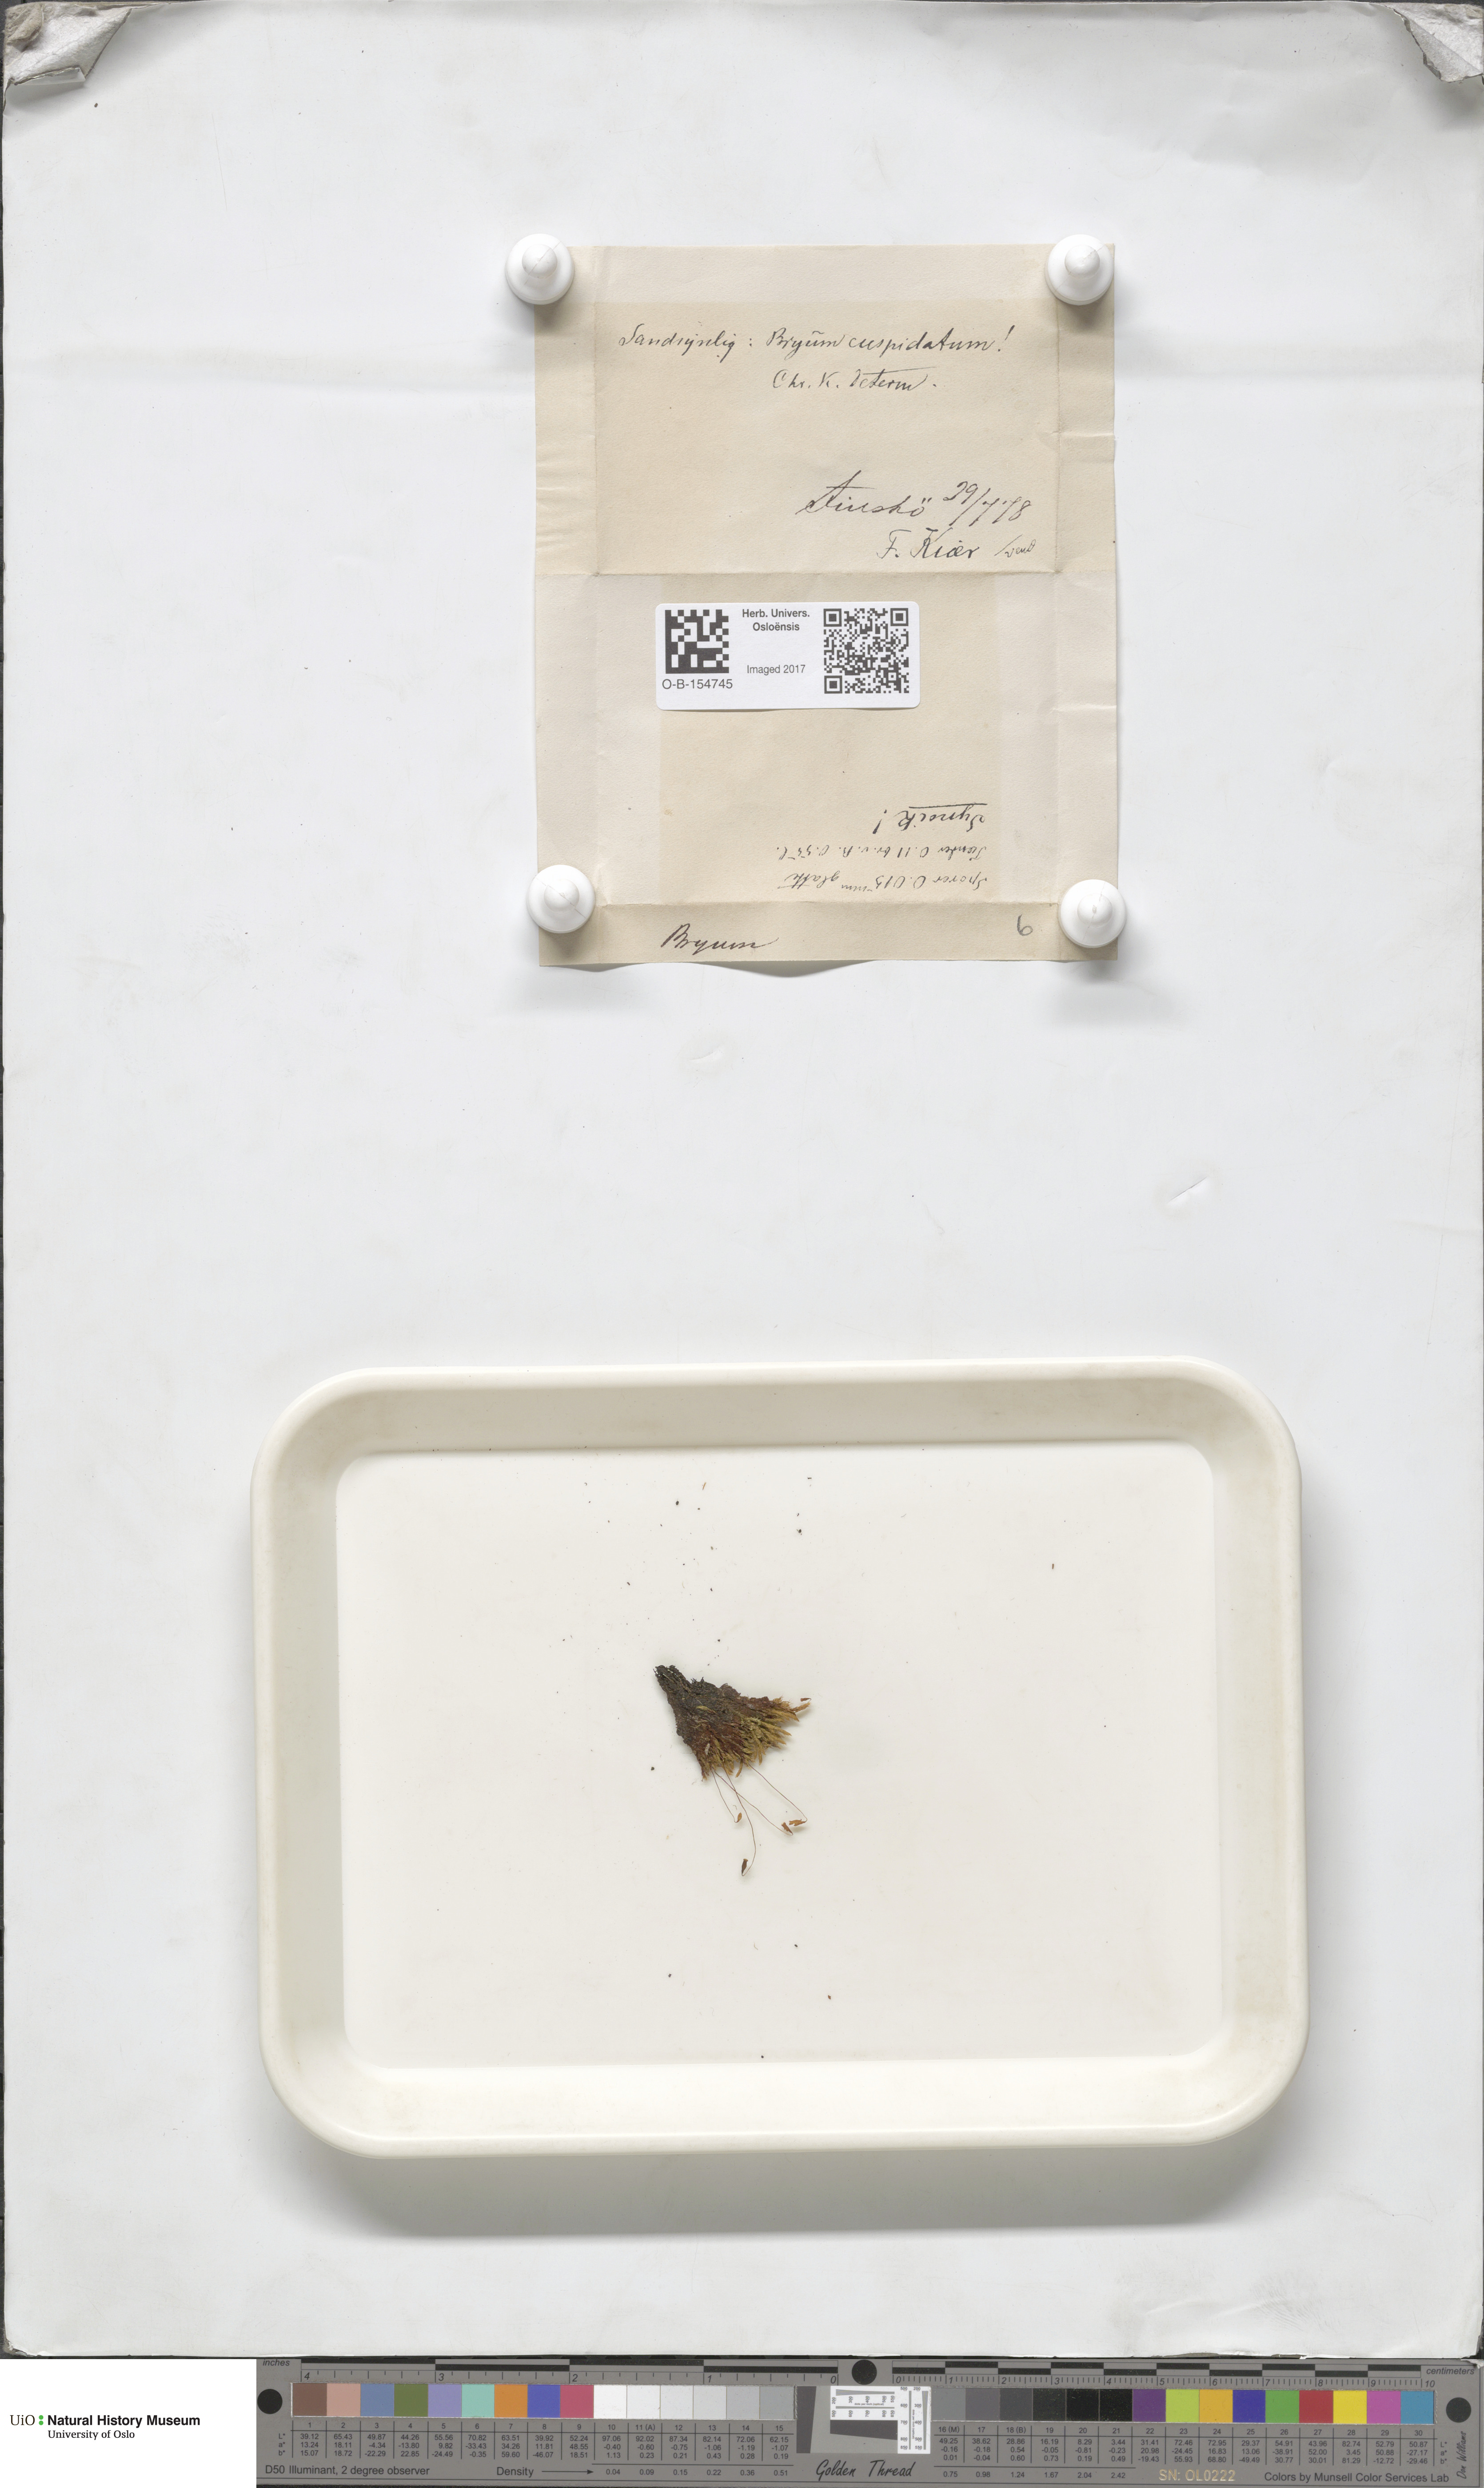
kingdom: Plantae
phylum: Bryophyta
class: Bryopsida
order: Bryales
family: Bryaceae
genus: Ptychostomum
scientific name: Ptychostomum creberrimum
